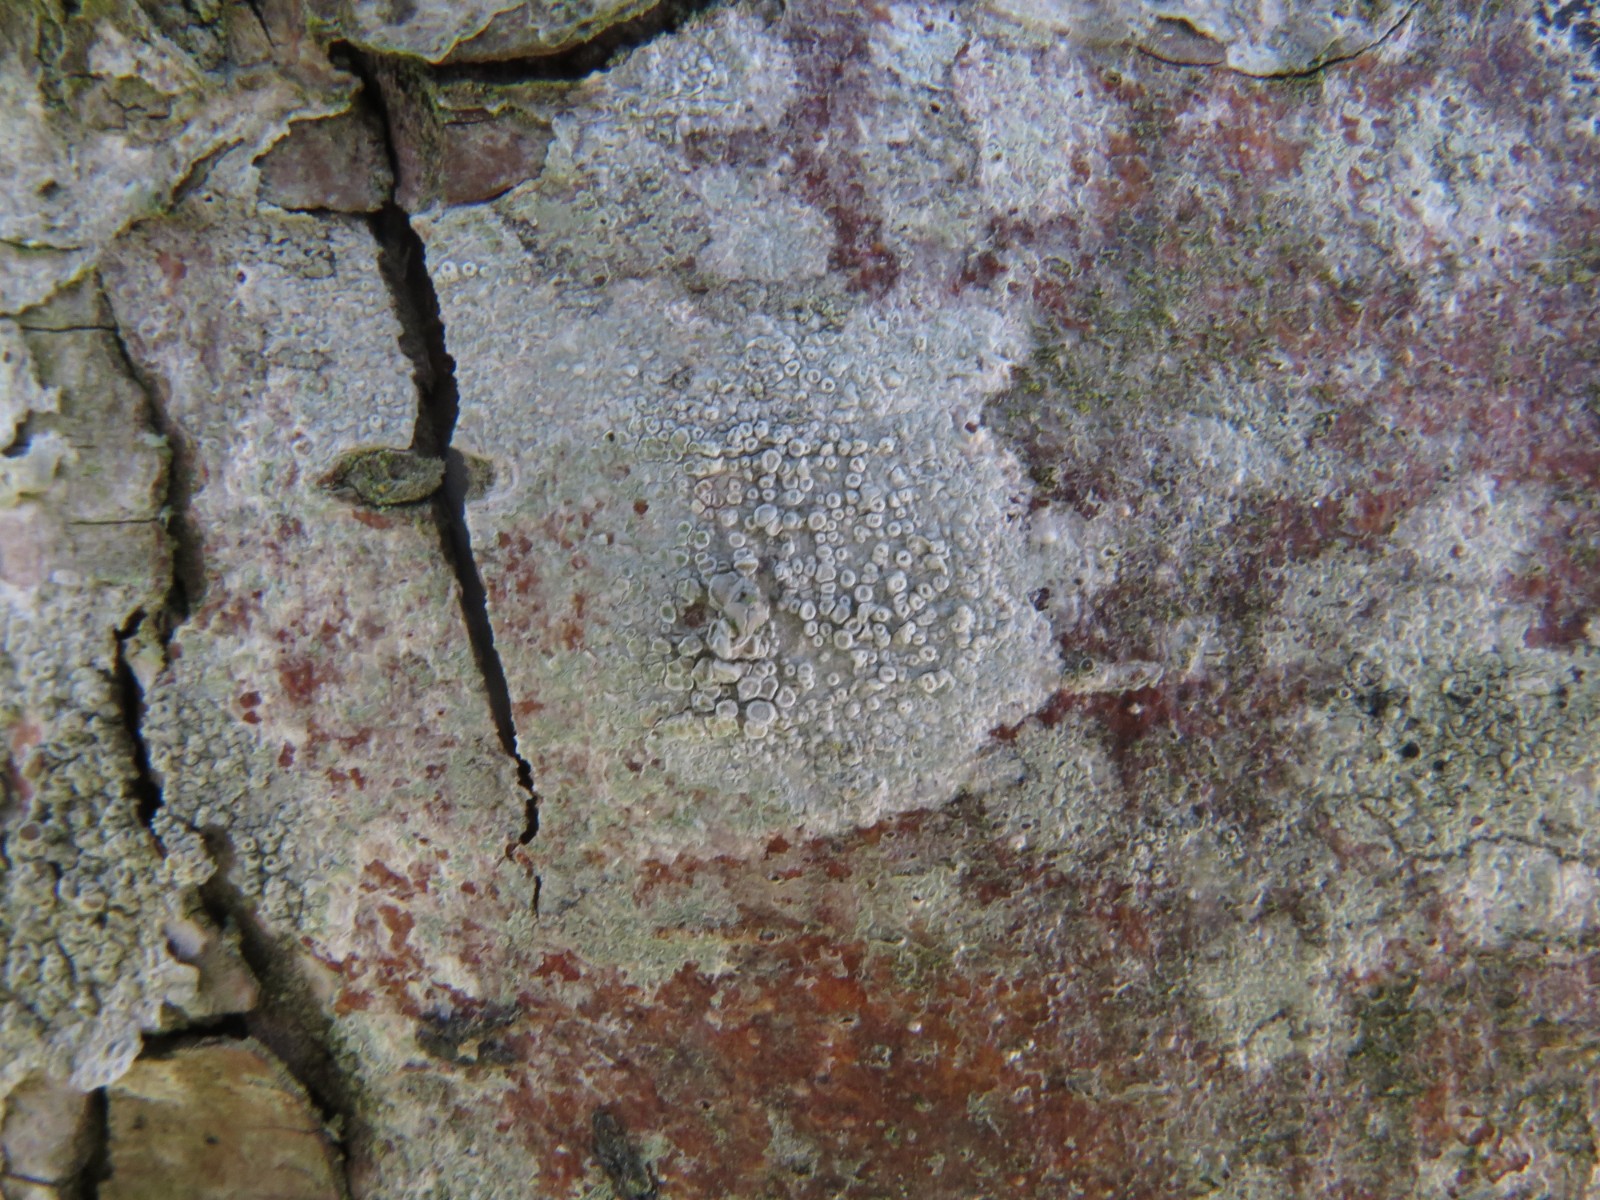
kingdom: Fungi
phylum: Ascomycota
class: Lecanoromycetes
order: Lecanorales
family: Lecanoraceae
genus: Glaucomaria
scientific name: Glaucomaria carpinea
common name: hviddugget kantskivelav
